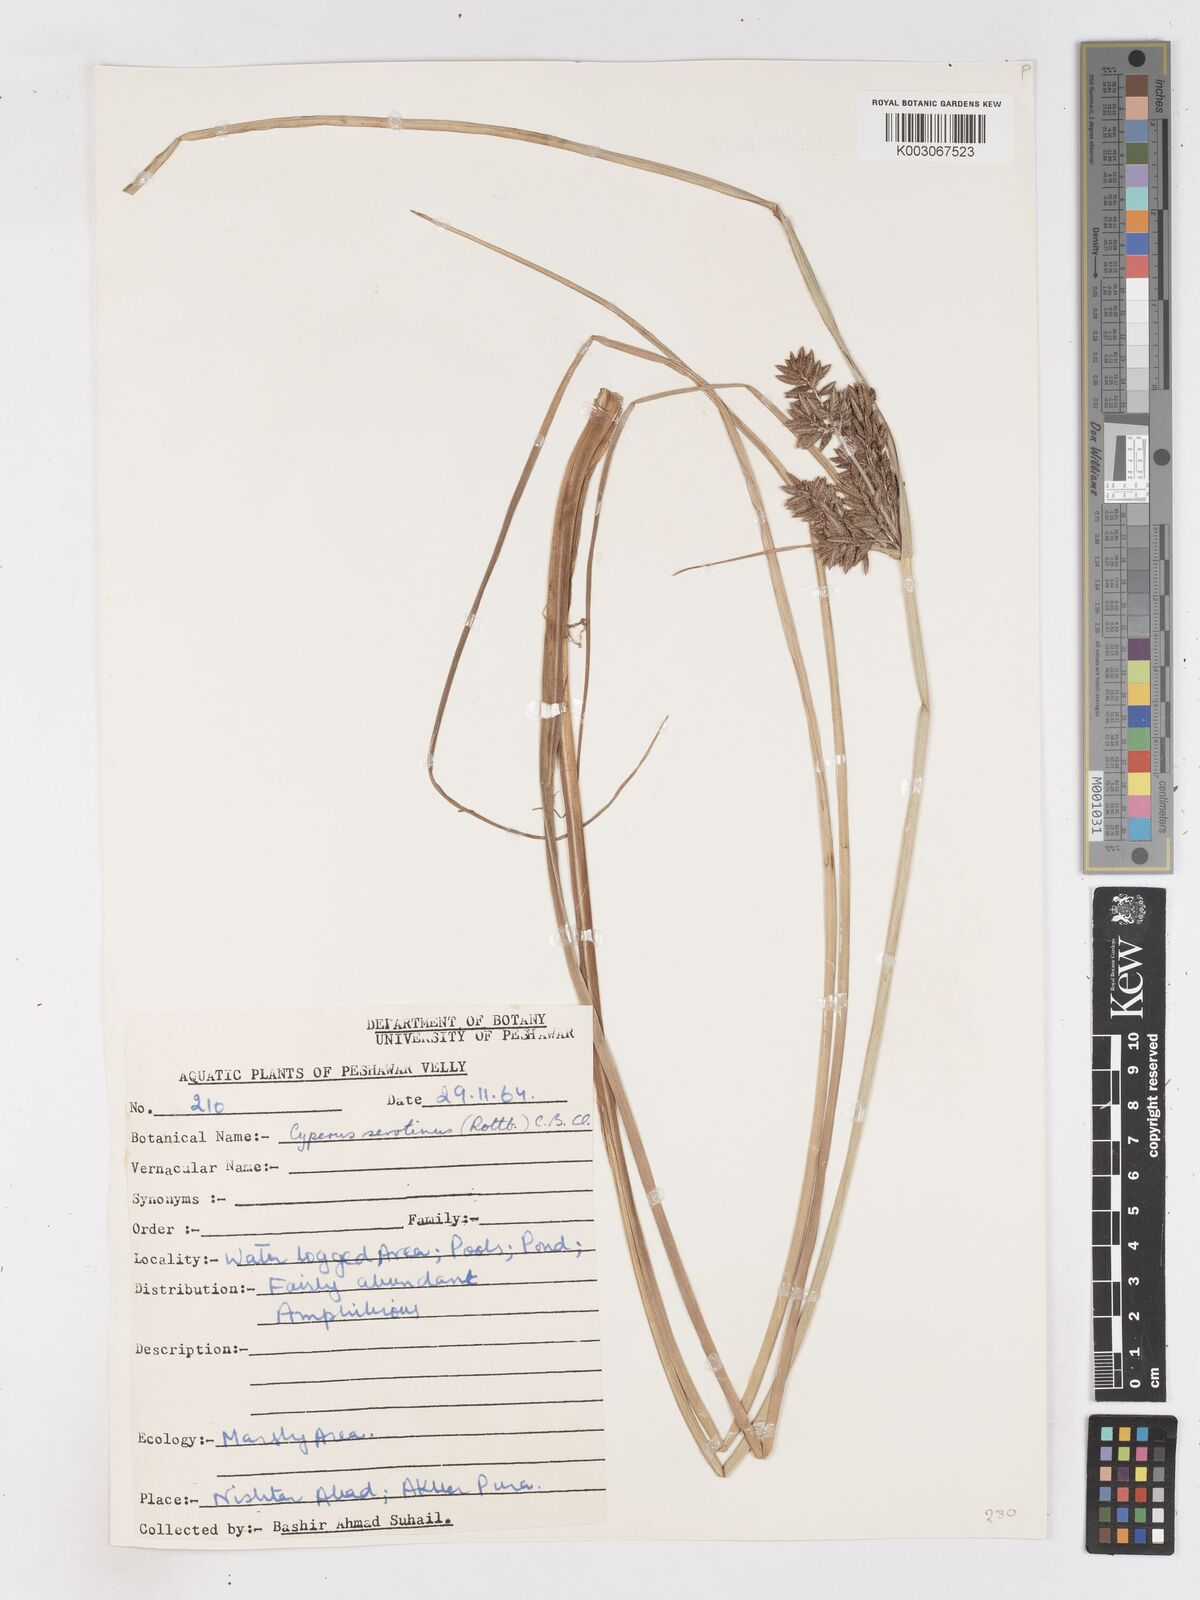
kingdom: Plantae
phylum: Tracheophyta
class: Liliopsida
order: Poales
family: Cyperaceae
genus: Cyperus
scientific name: Cyperus serotinus
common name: Tidalmarsh flatsedge
